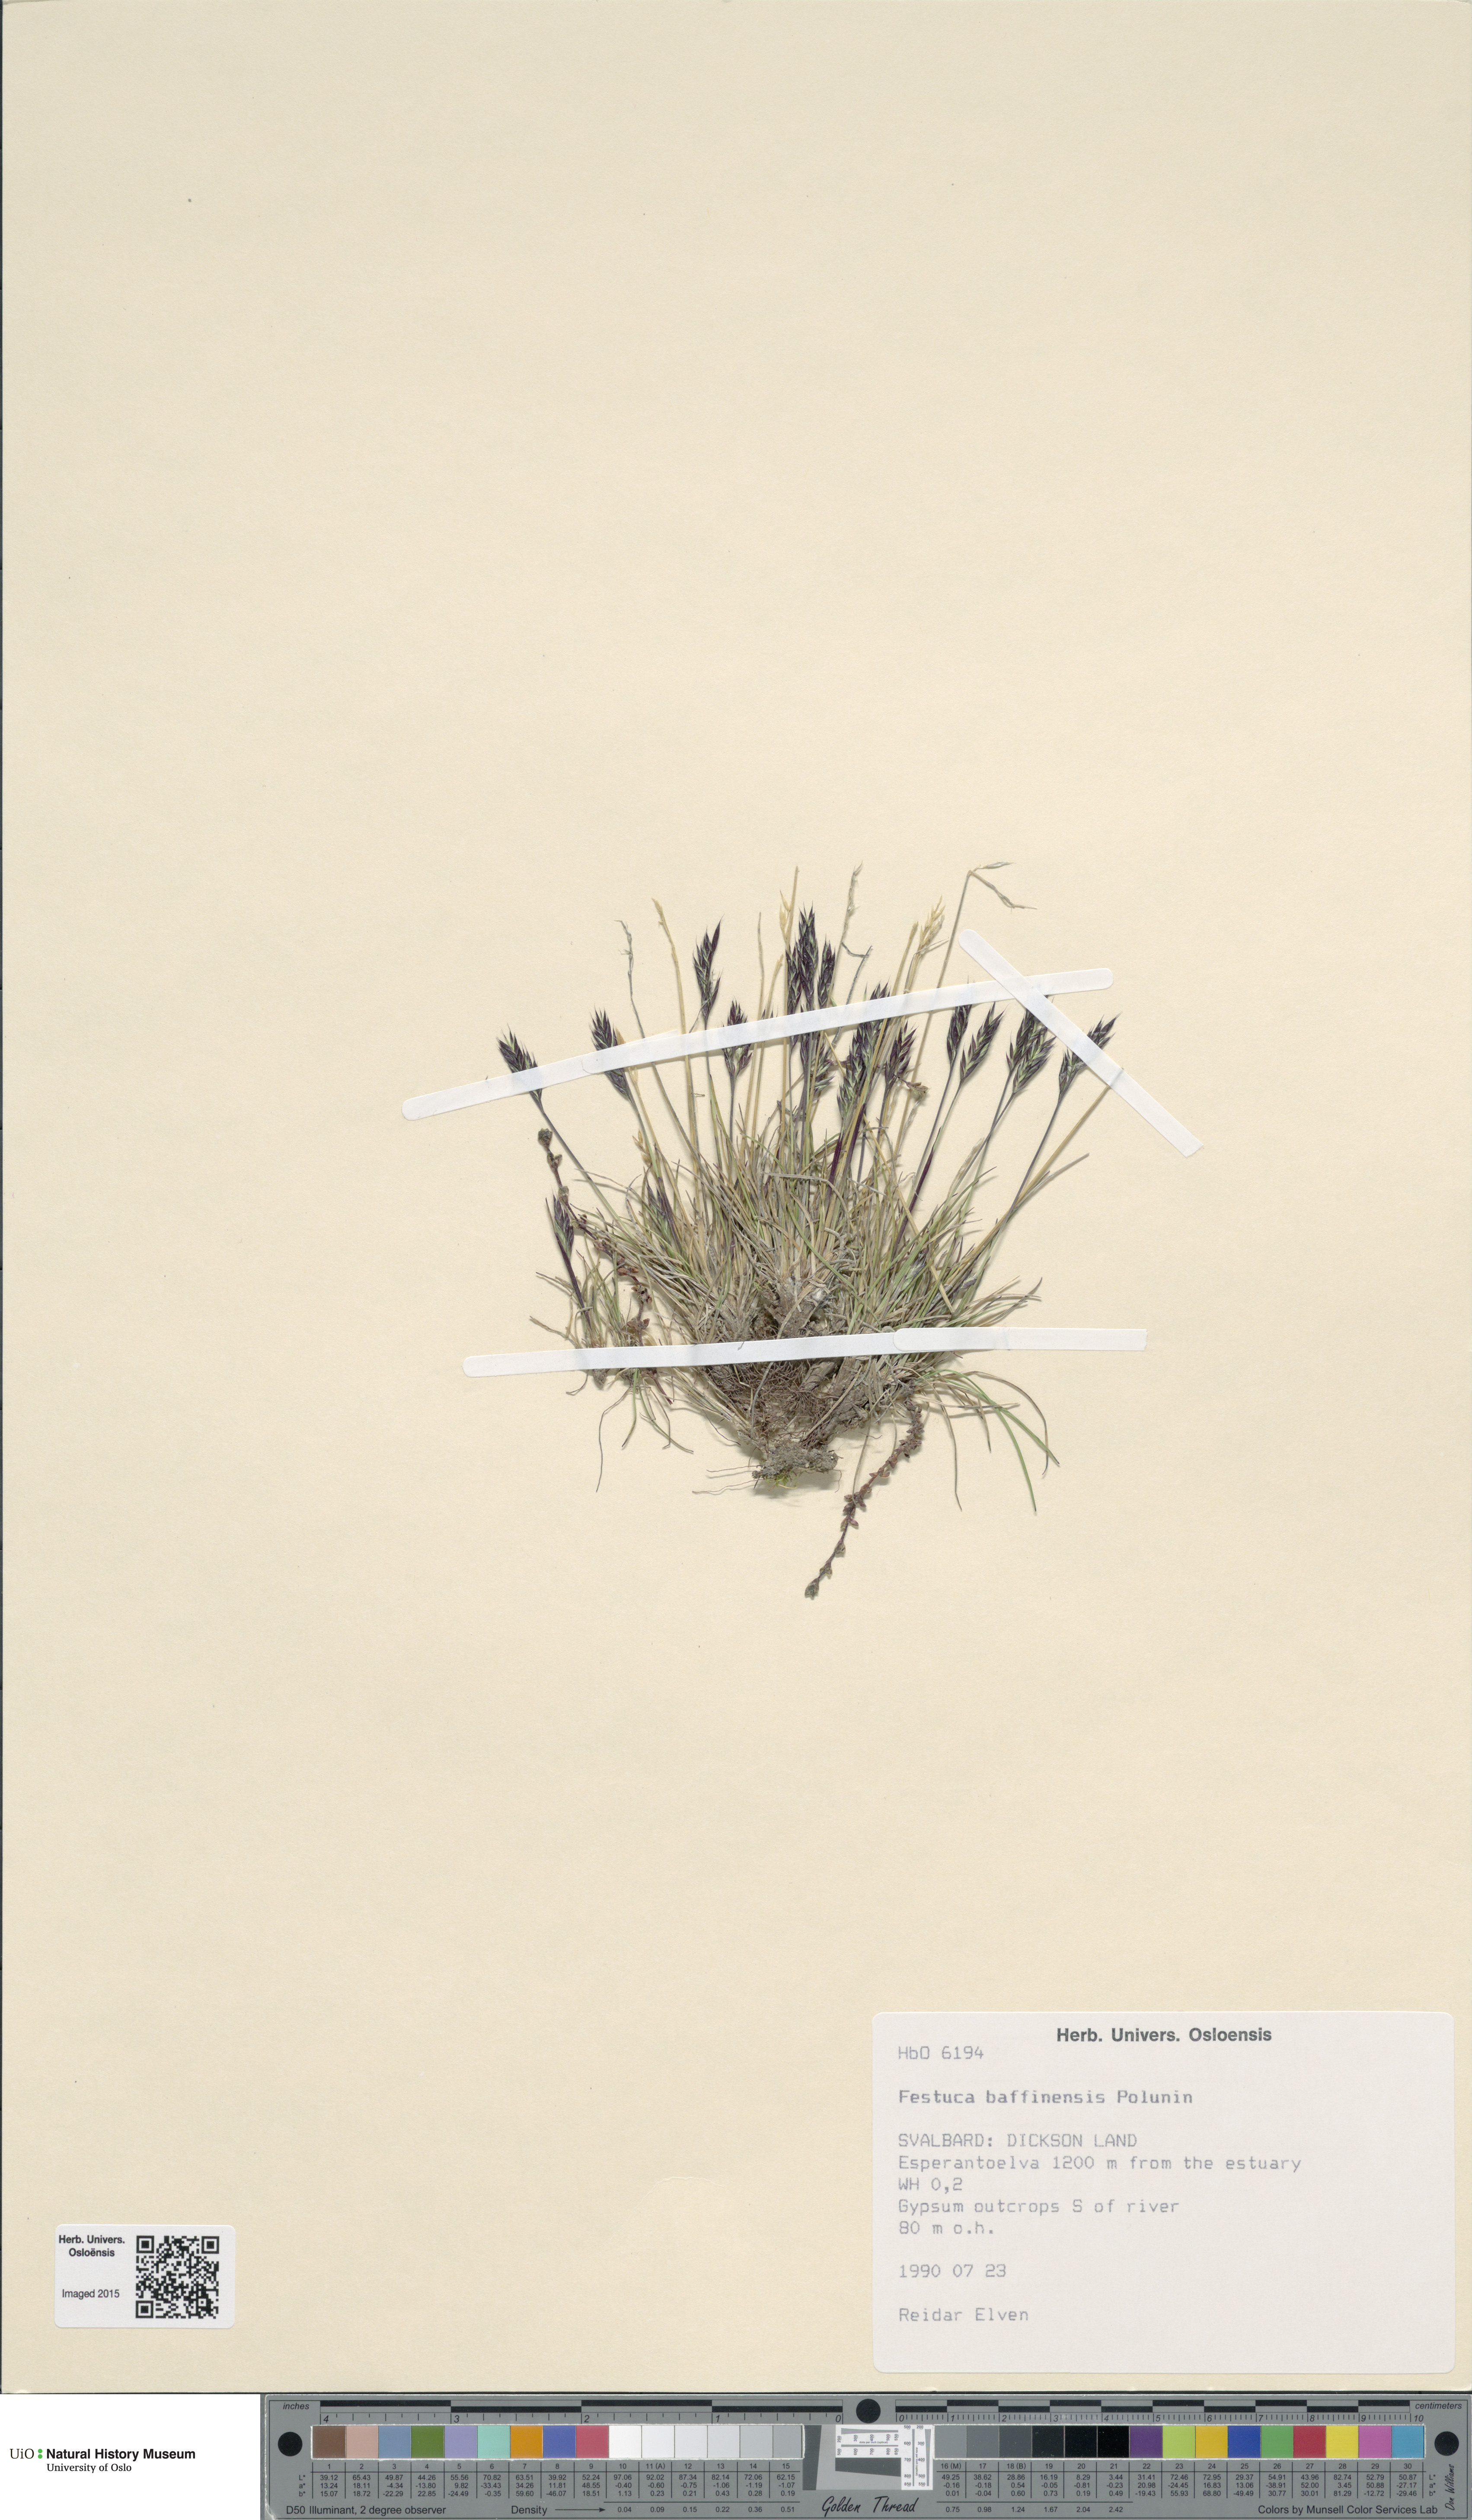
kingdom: Plantae
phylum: Tracheophyta
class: Liliopsida
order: Poales
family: Poaceae
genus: Festuca
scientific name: Festuca baffinensis
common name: Baffin island fescue
